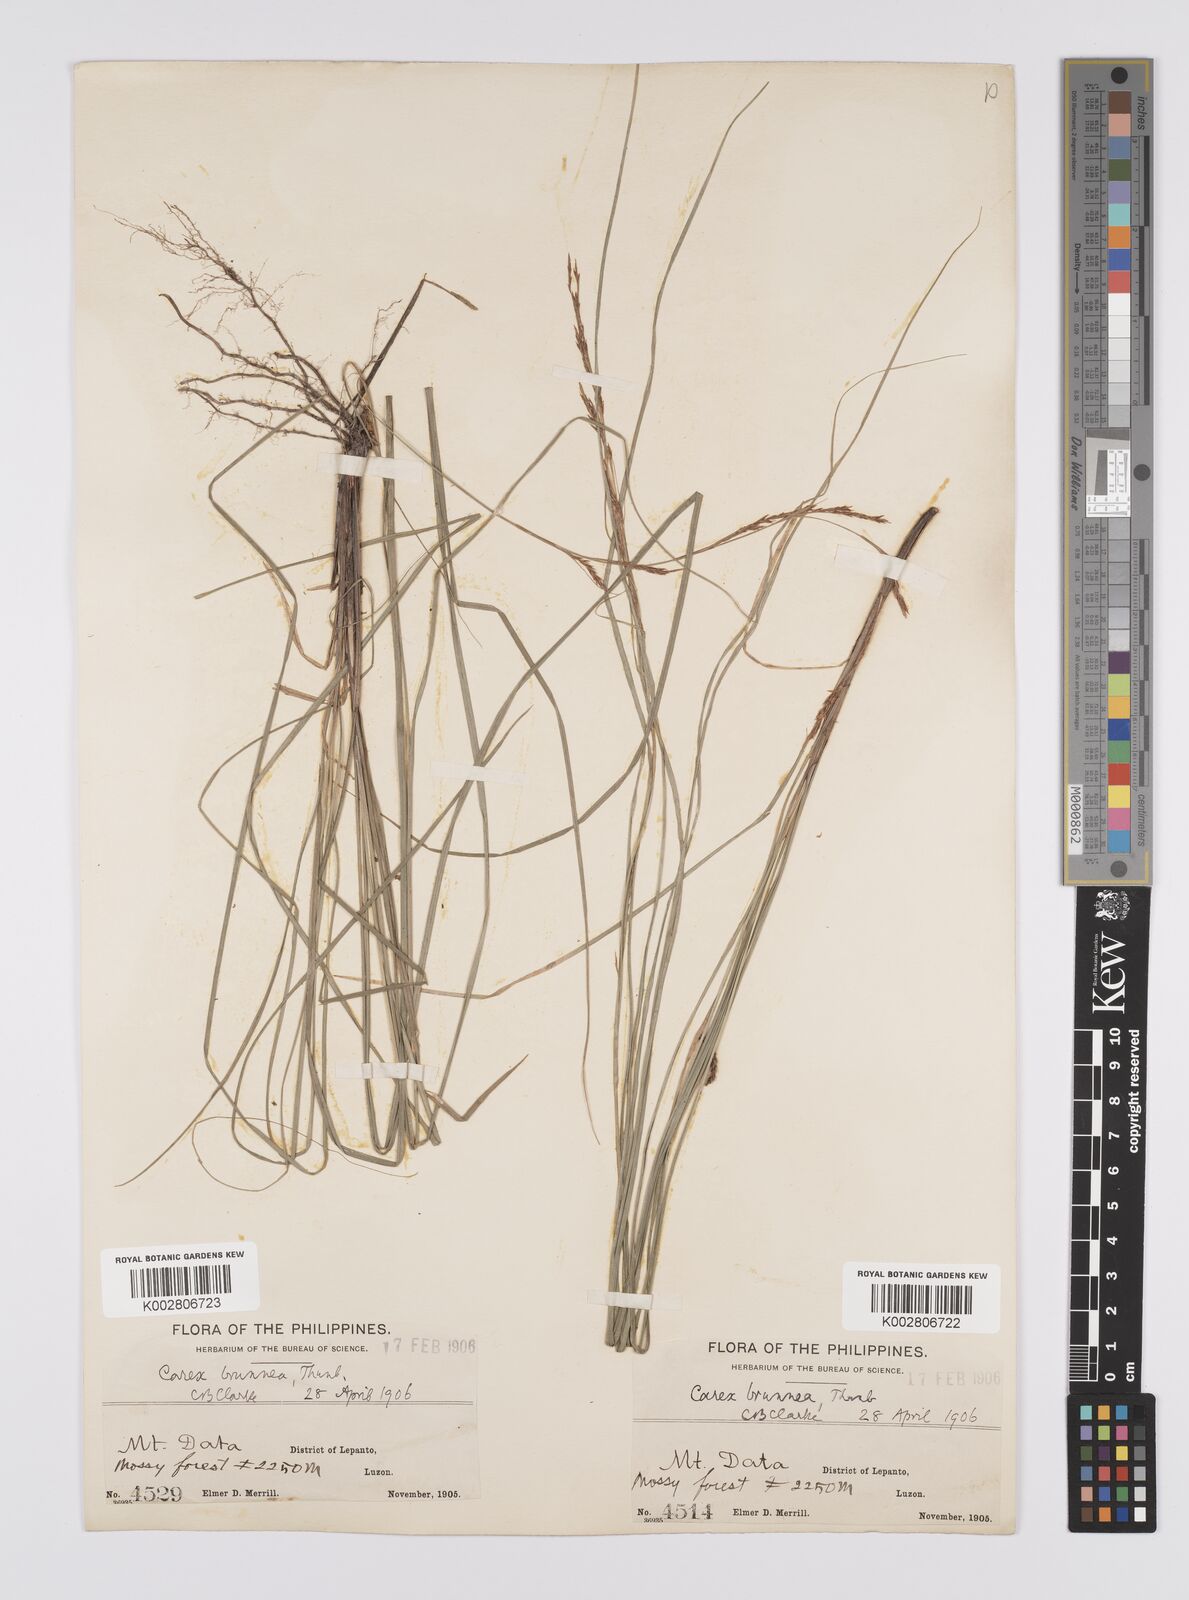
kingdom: Plantae
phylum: Tracheophyta
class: Liliopsida
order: Poales
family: Cyperaceae
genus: Carex
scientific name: Carex brunnea
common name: Greater brown sedge
